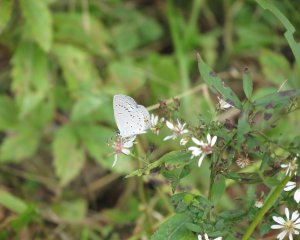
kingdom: Animalia
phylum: Arthropoda
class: Insecta
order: Lepidoptera
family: Lycaenidae
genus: Elkalyce
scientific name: Elkalyce comyntas
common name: Eastern Tailed-Blue
